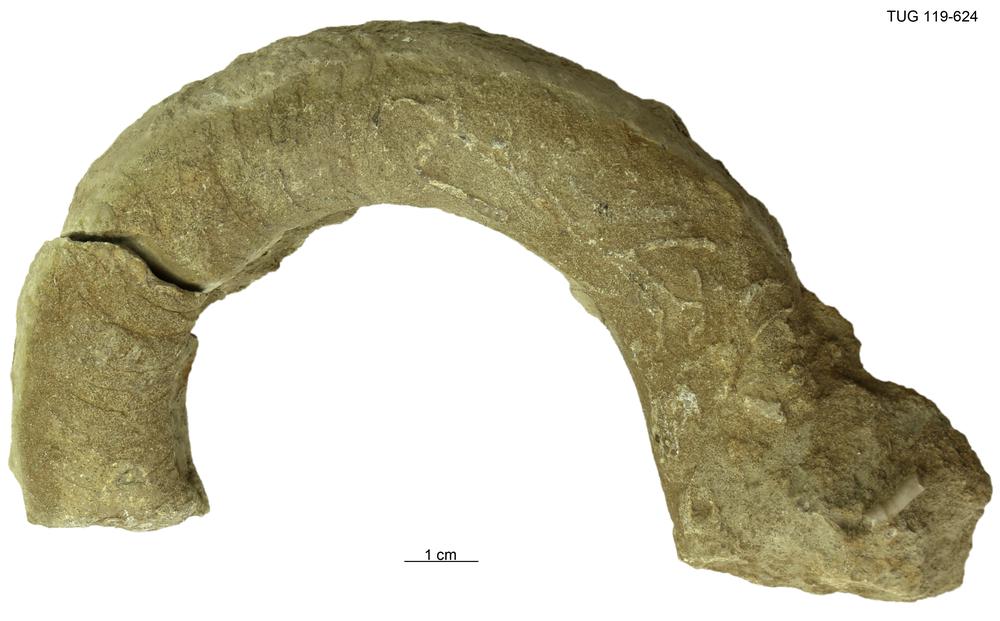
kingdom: Animalia
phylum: Mollusca
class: Cephalopoda
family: Trocholitidae
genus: Discoceras
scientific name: Discoceras
